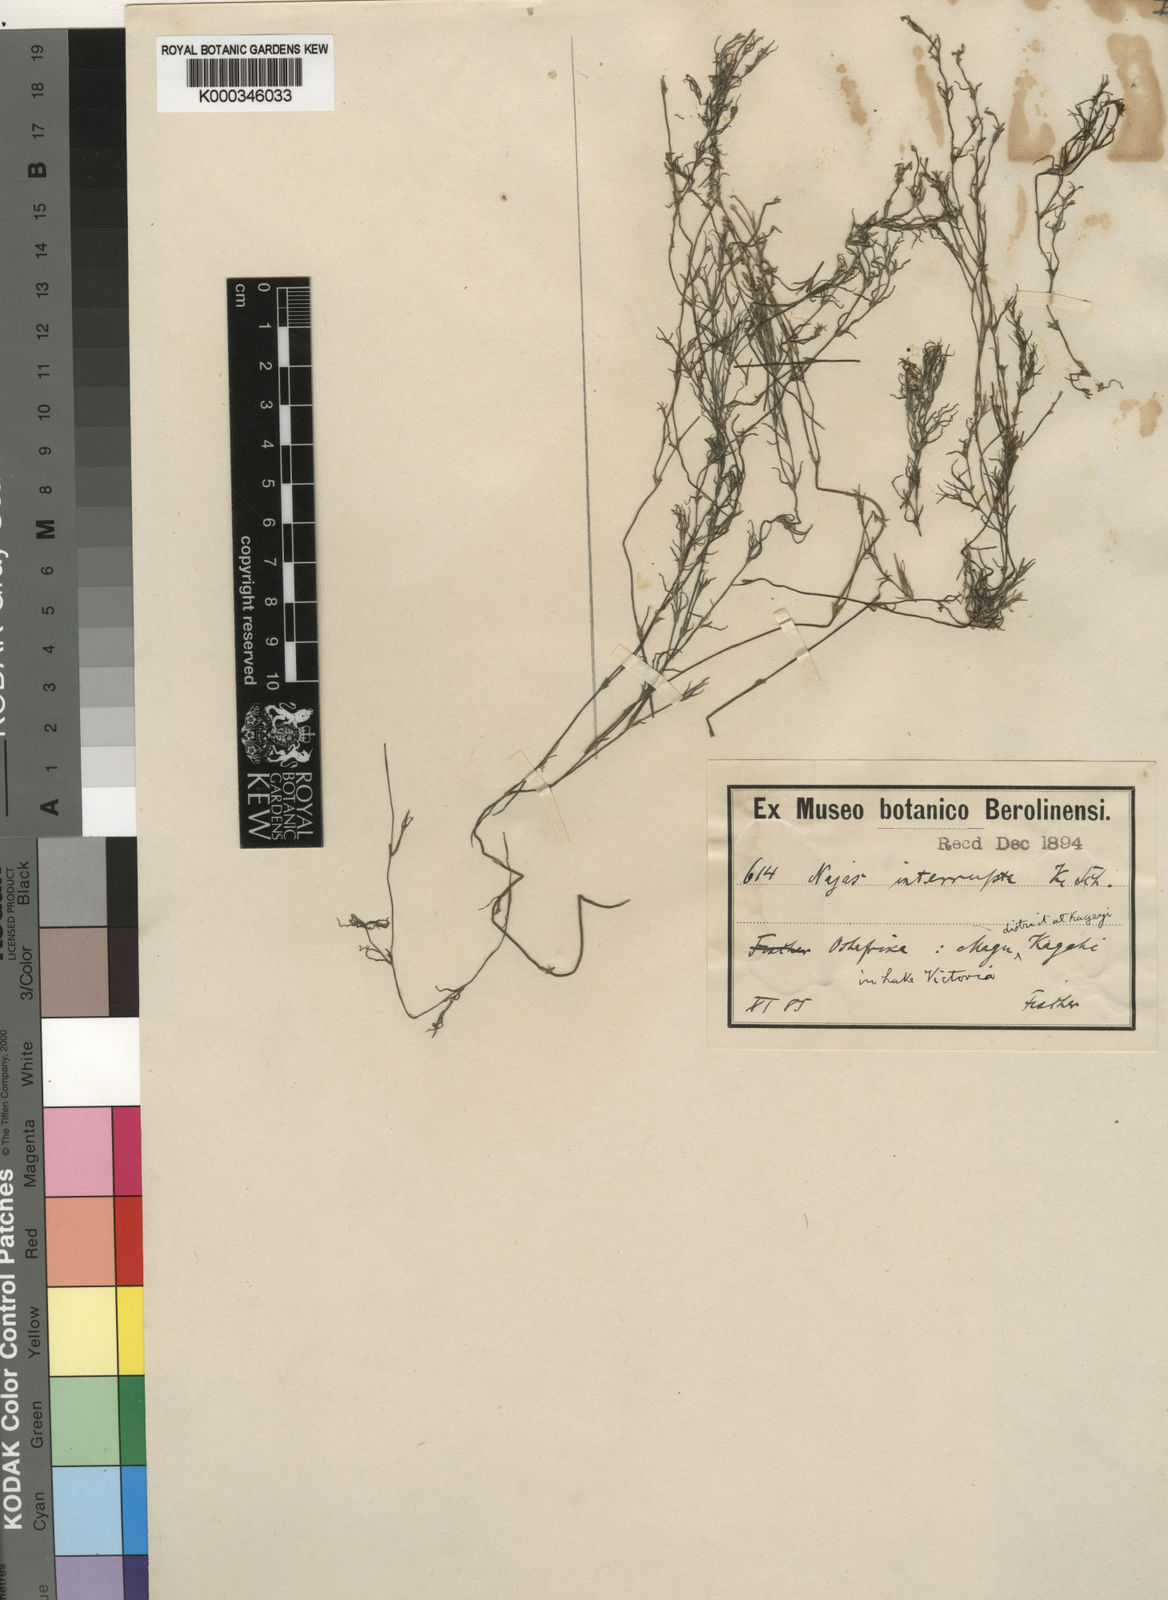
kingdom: Plantae
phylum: Tracheophyta
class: Liliopsida
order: Alismatales
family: Hydrocharitaceae
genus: Najas
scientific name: Najas
